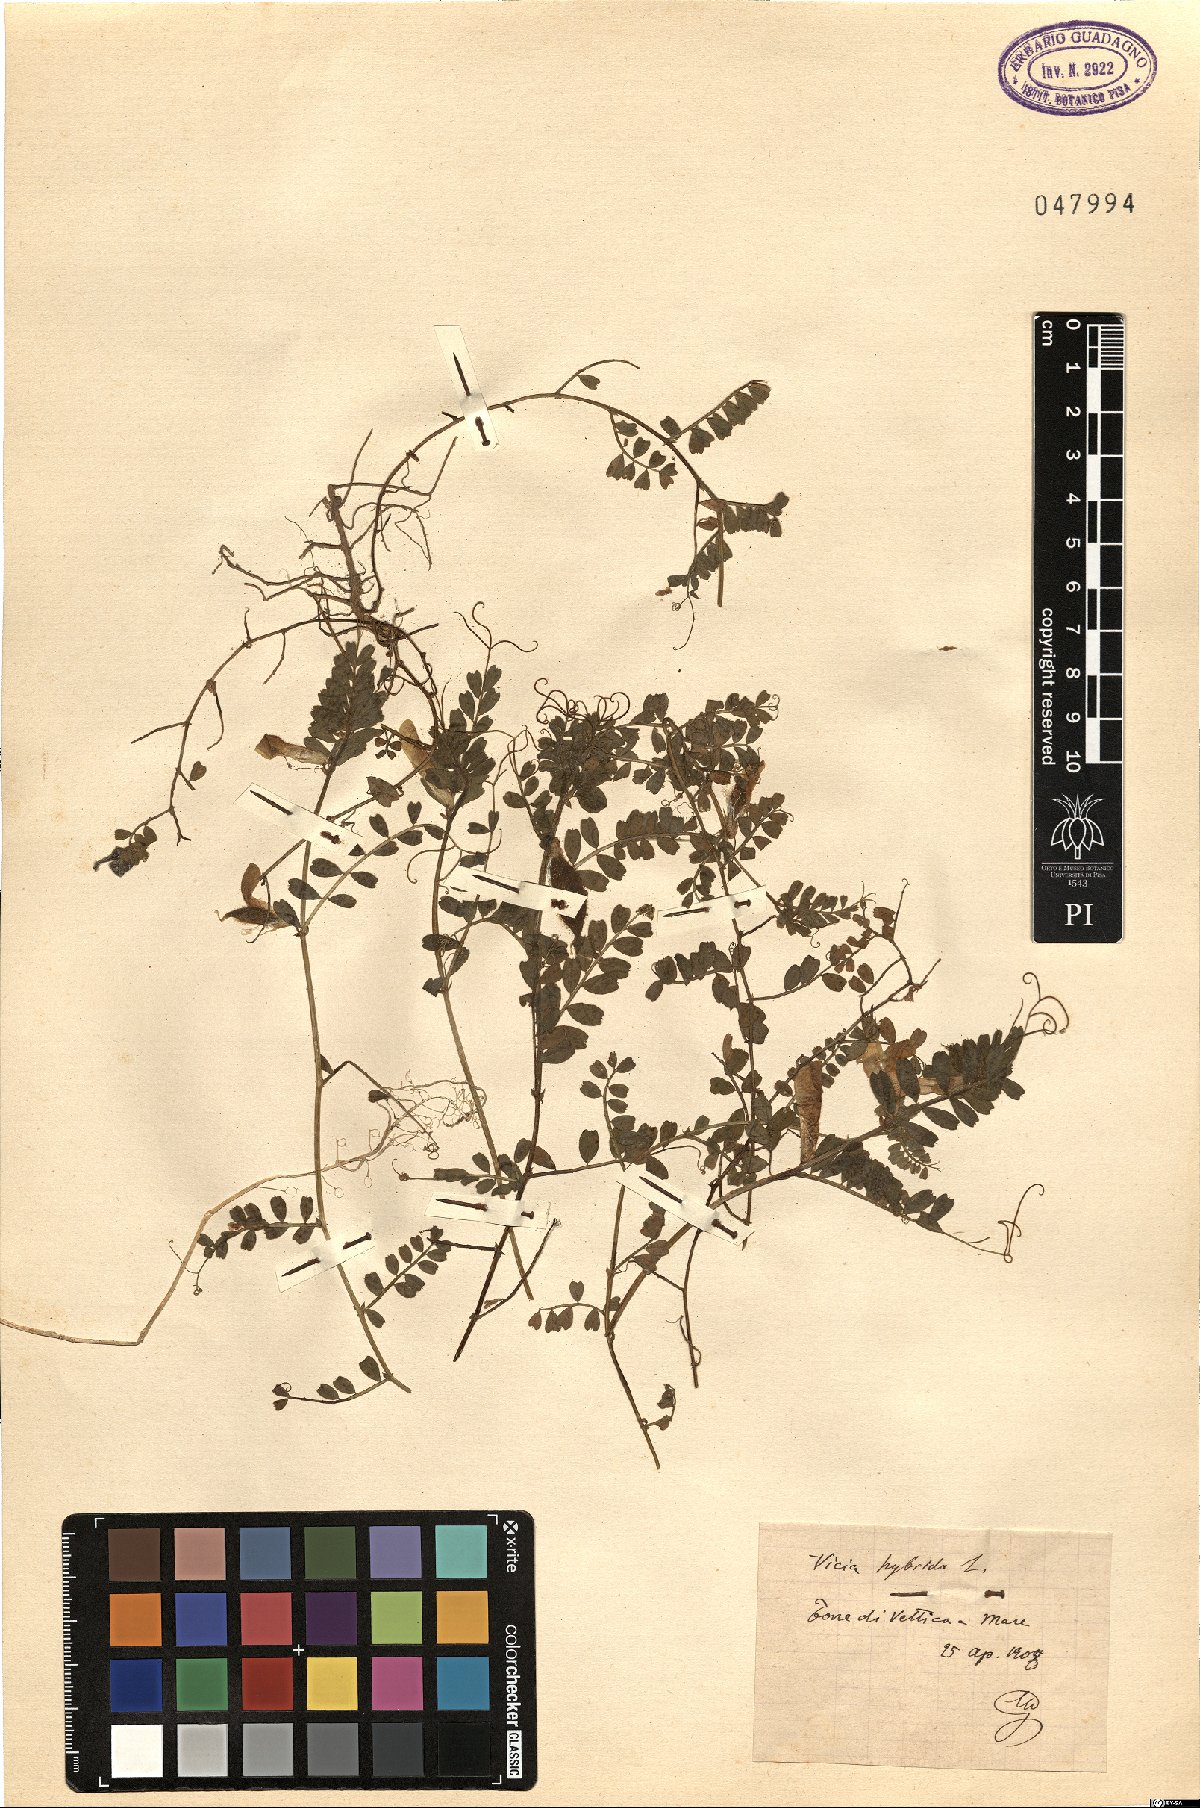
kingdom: Plantae
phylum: Tracheophyta
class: Magnoliopsida
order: Fabales
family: Fabaceae
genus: Vicia
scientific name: Vicia hybrida
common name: Hairy yellow vetch
